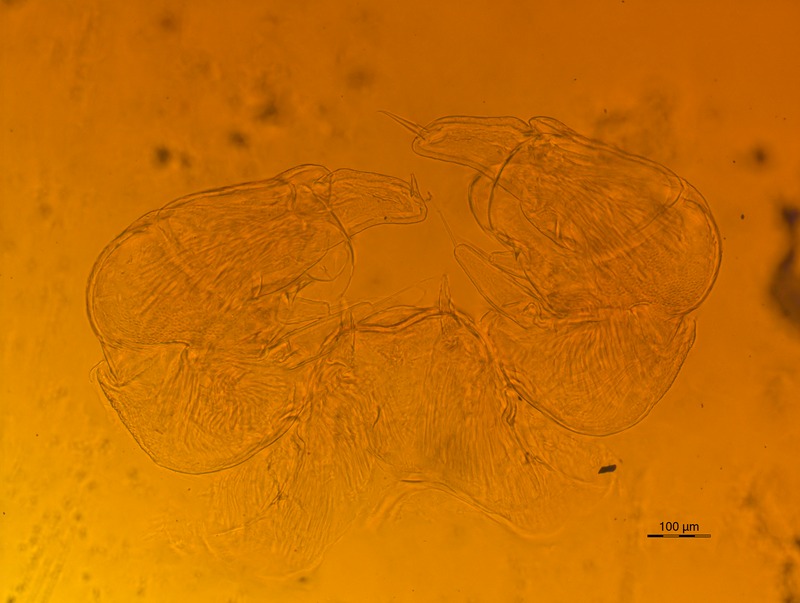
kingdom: Animalia
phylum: Arthropoda
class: Diplopoda
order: Glomerida
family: Glomeridae
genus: Trachysphaera
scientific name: Trachysphaera gibbula
